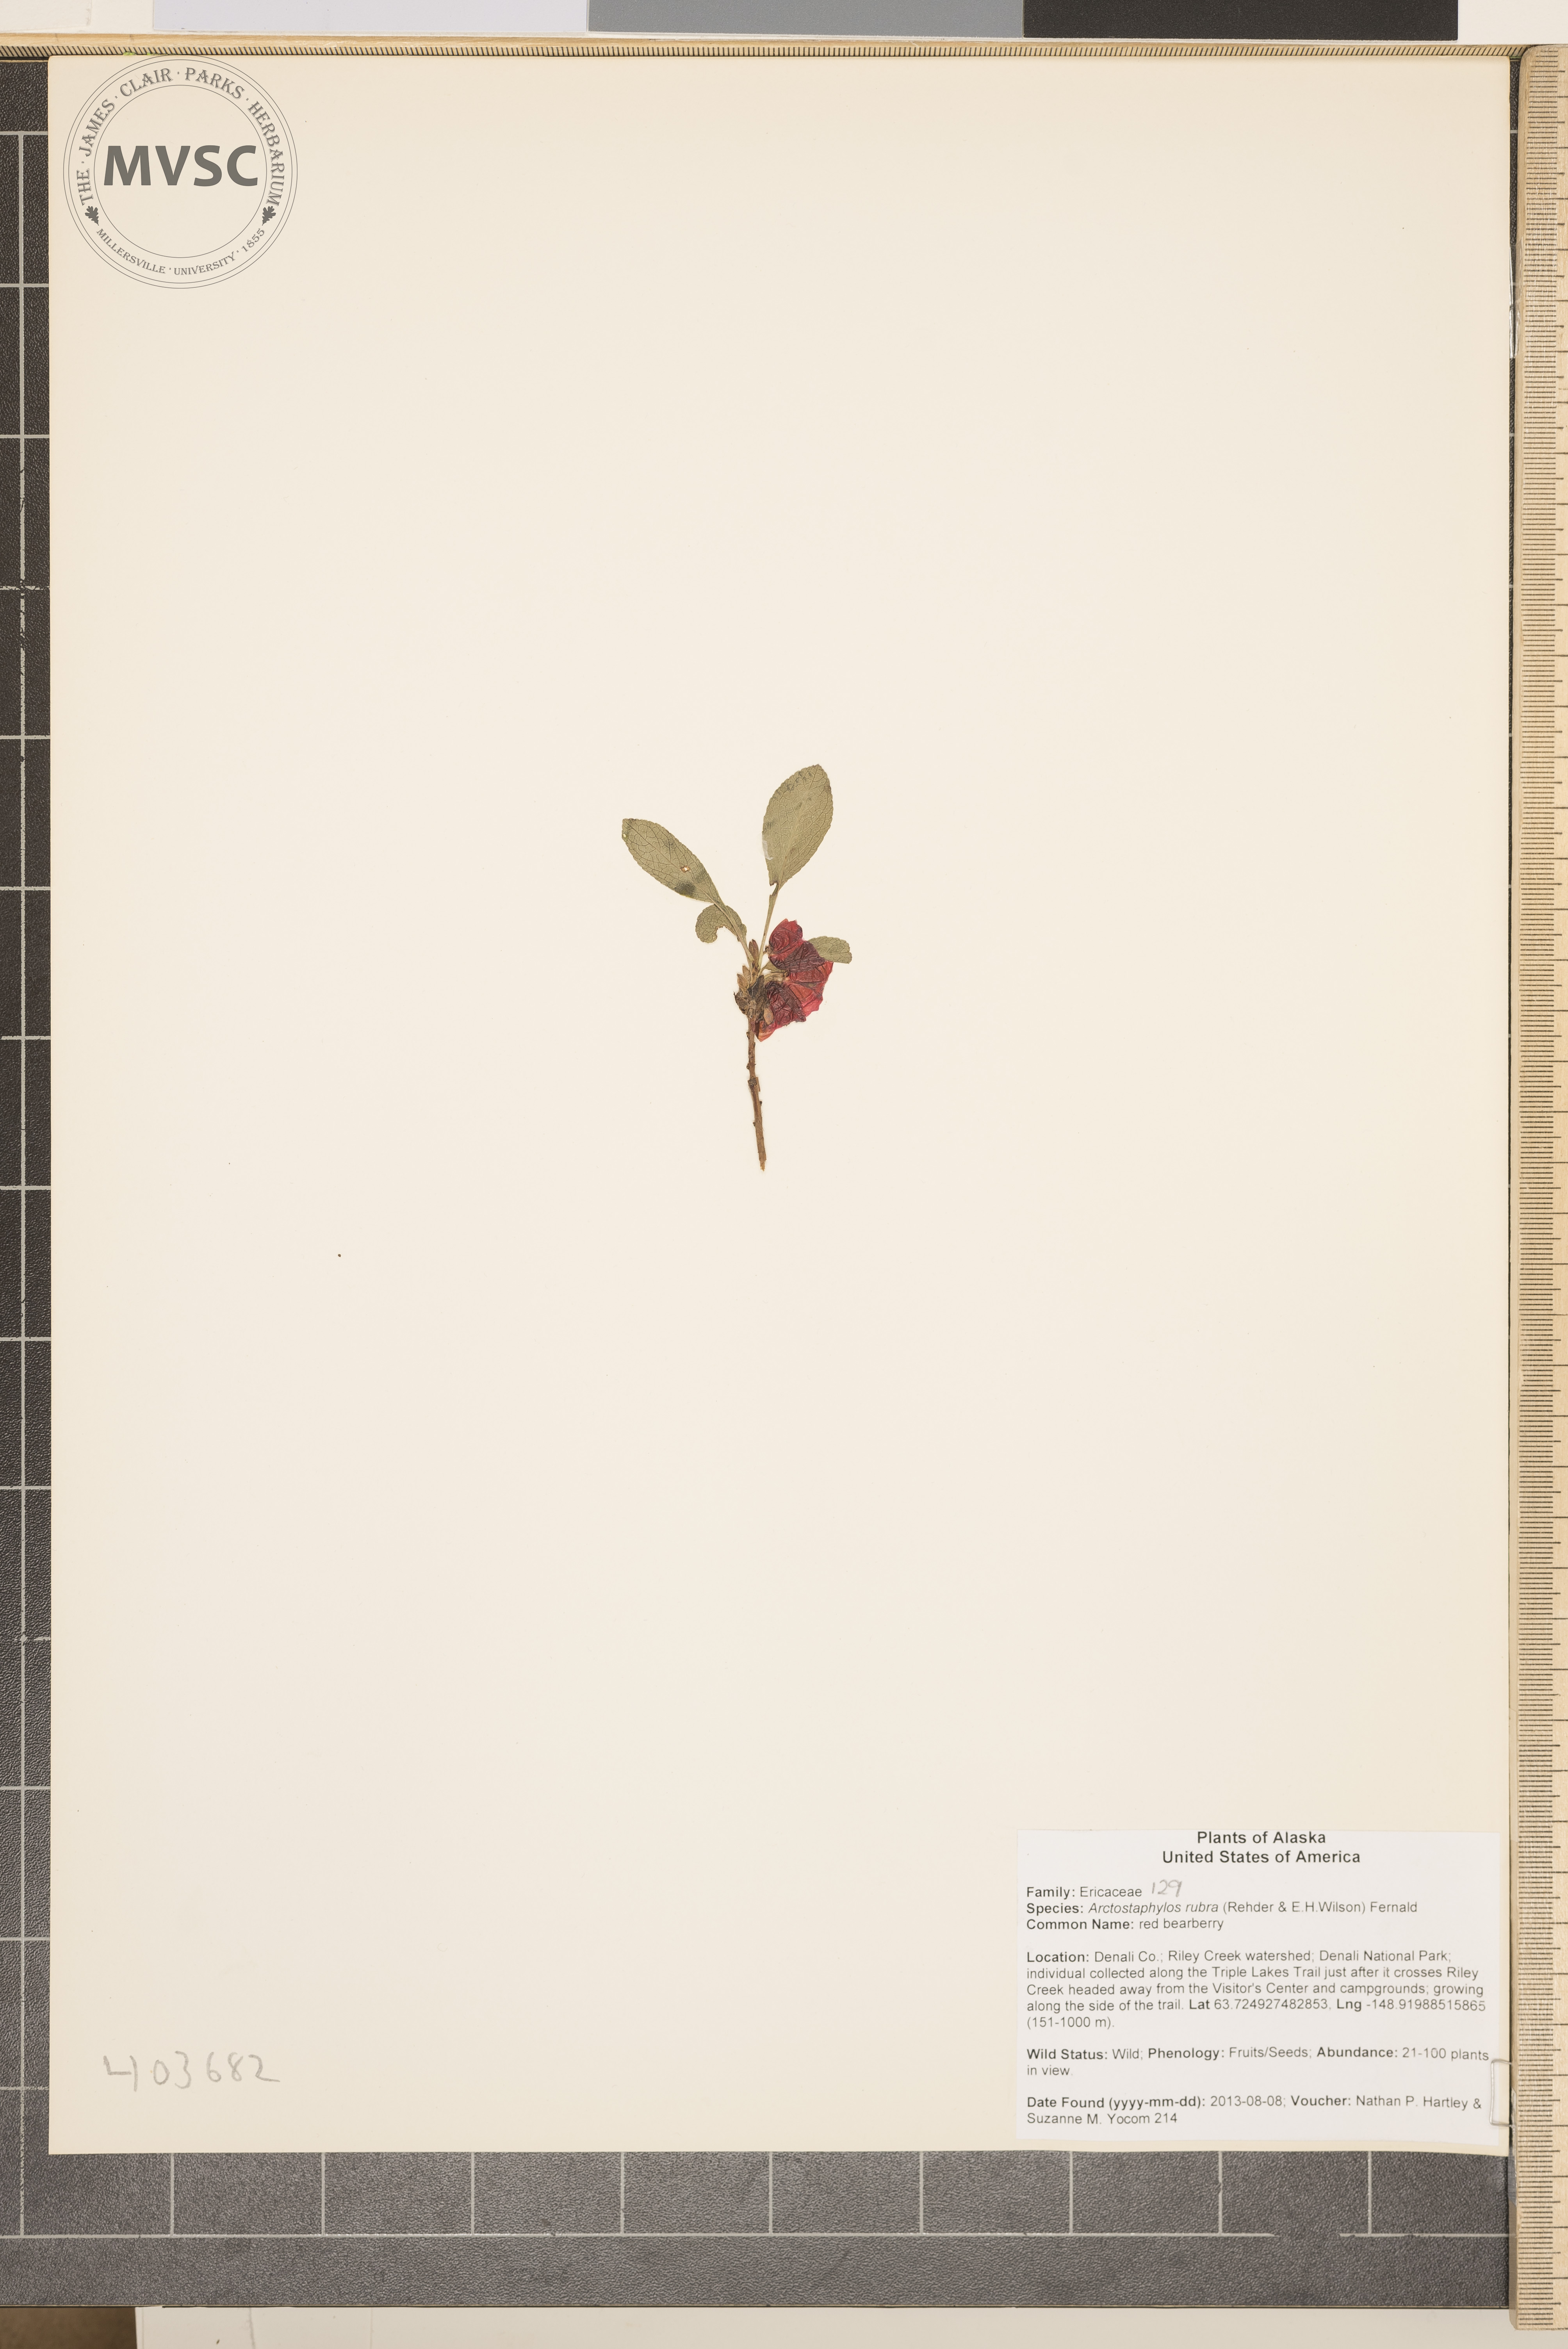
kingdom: Plantae
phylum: Tracheophyta
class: Magnoliopsida
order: Ericales
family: Ericaceae
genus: Arctostaphylos
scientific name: Arctostaphylos rubra
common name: Red bearberry
